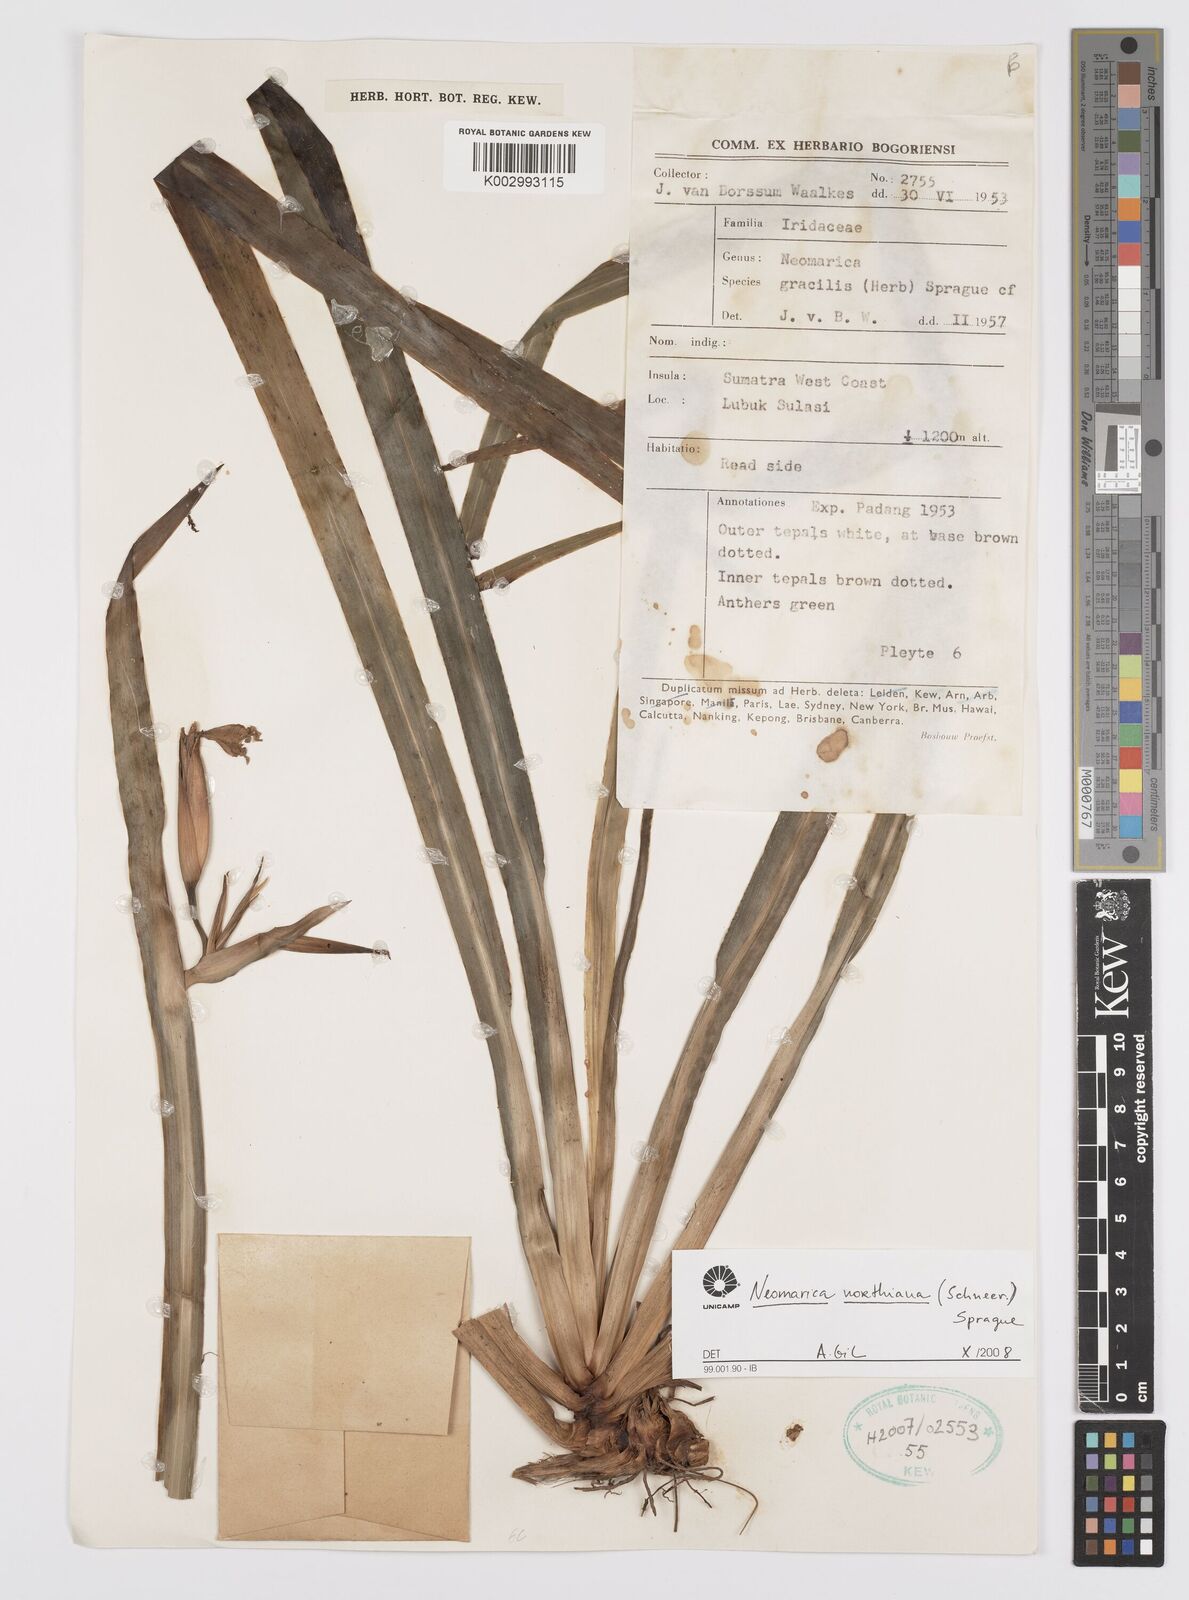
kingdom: Plantae
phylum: Tracheophyta
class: Liliopsida
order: Asparagales
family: Iridaceae
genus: Trimezia
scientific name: Trimezia northiana
